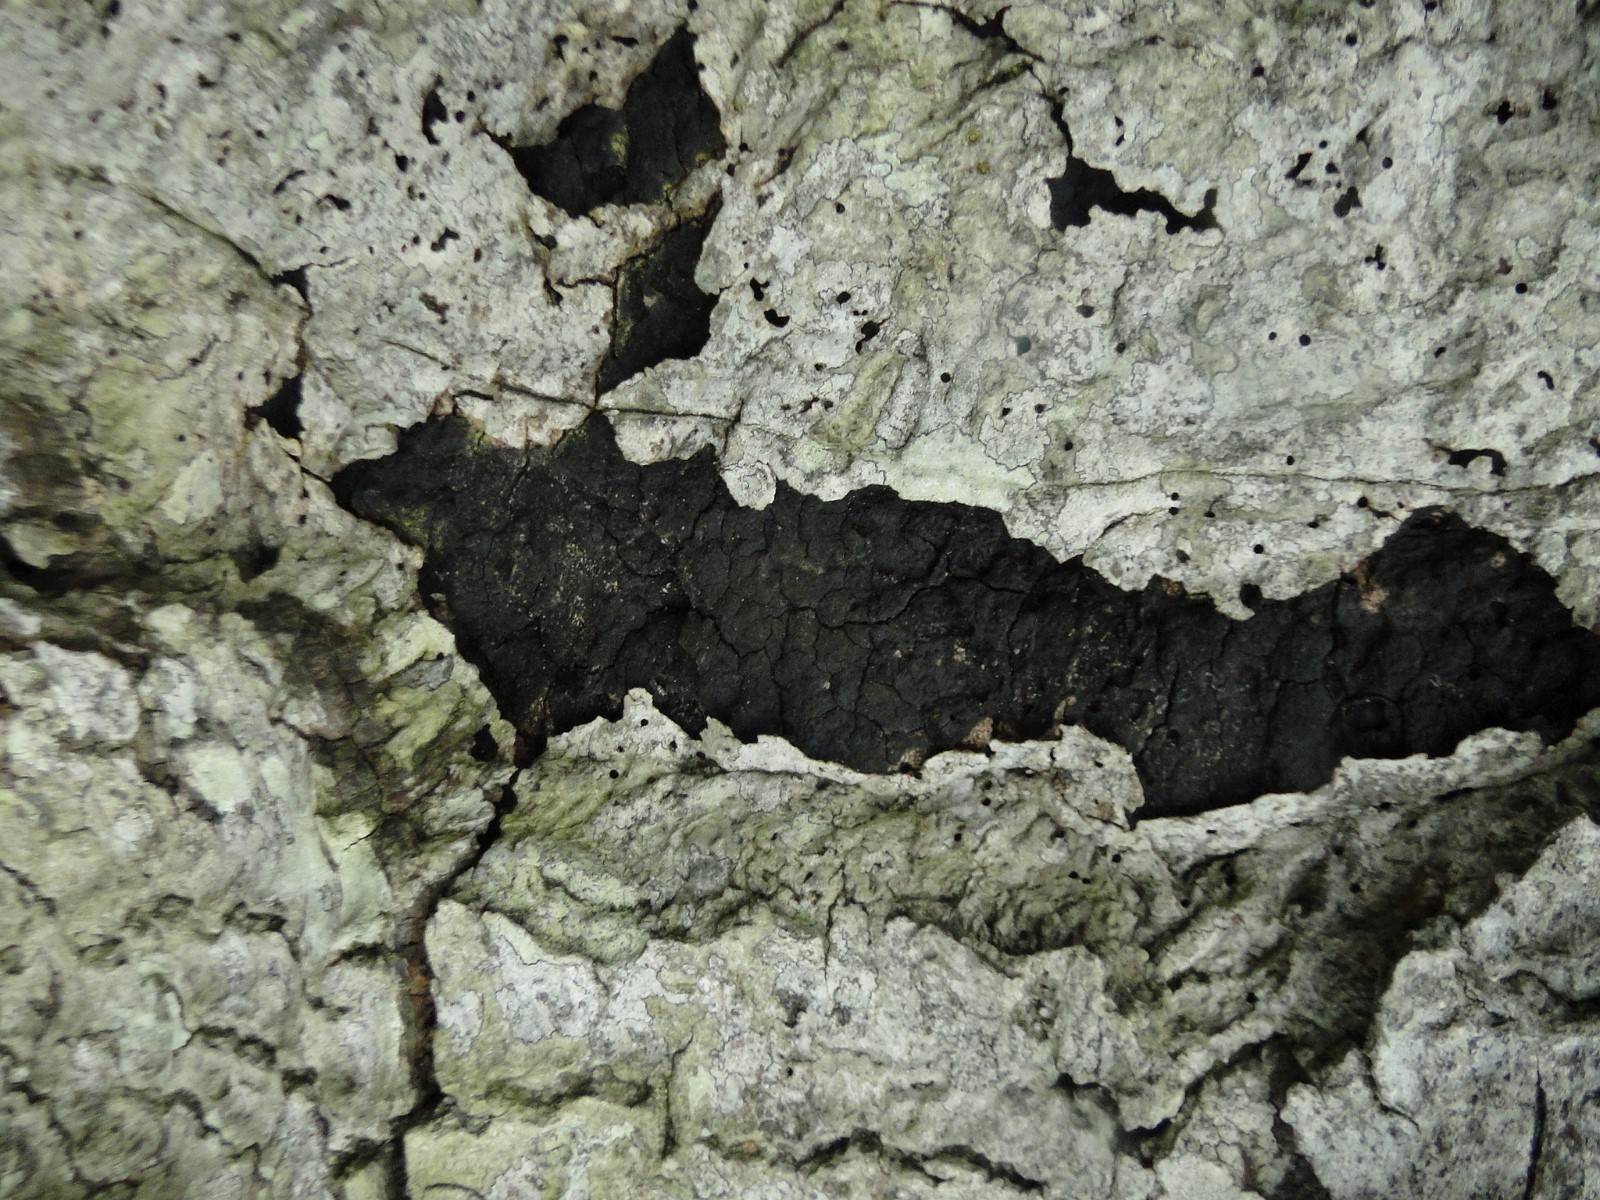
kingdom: Fungi
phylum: Ascomycota
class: Sordariomycetes
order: Xylariales
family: Diatrypaceae
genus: Eutypa
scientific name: Eutypa spinosa
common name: grov kulskorpe
